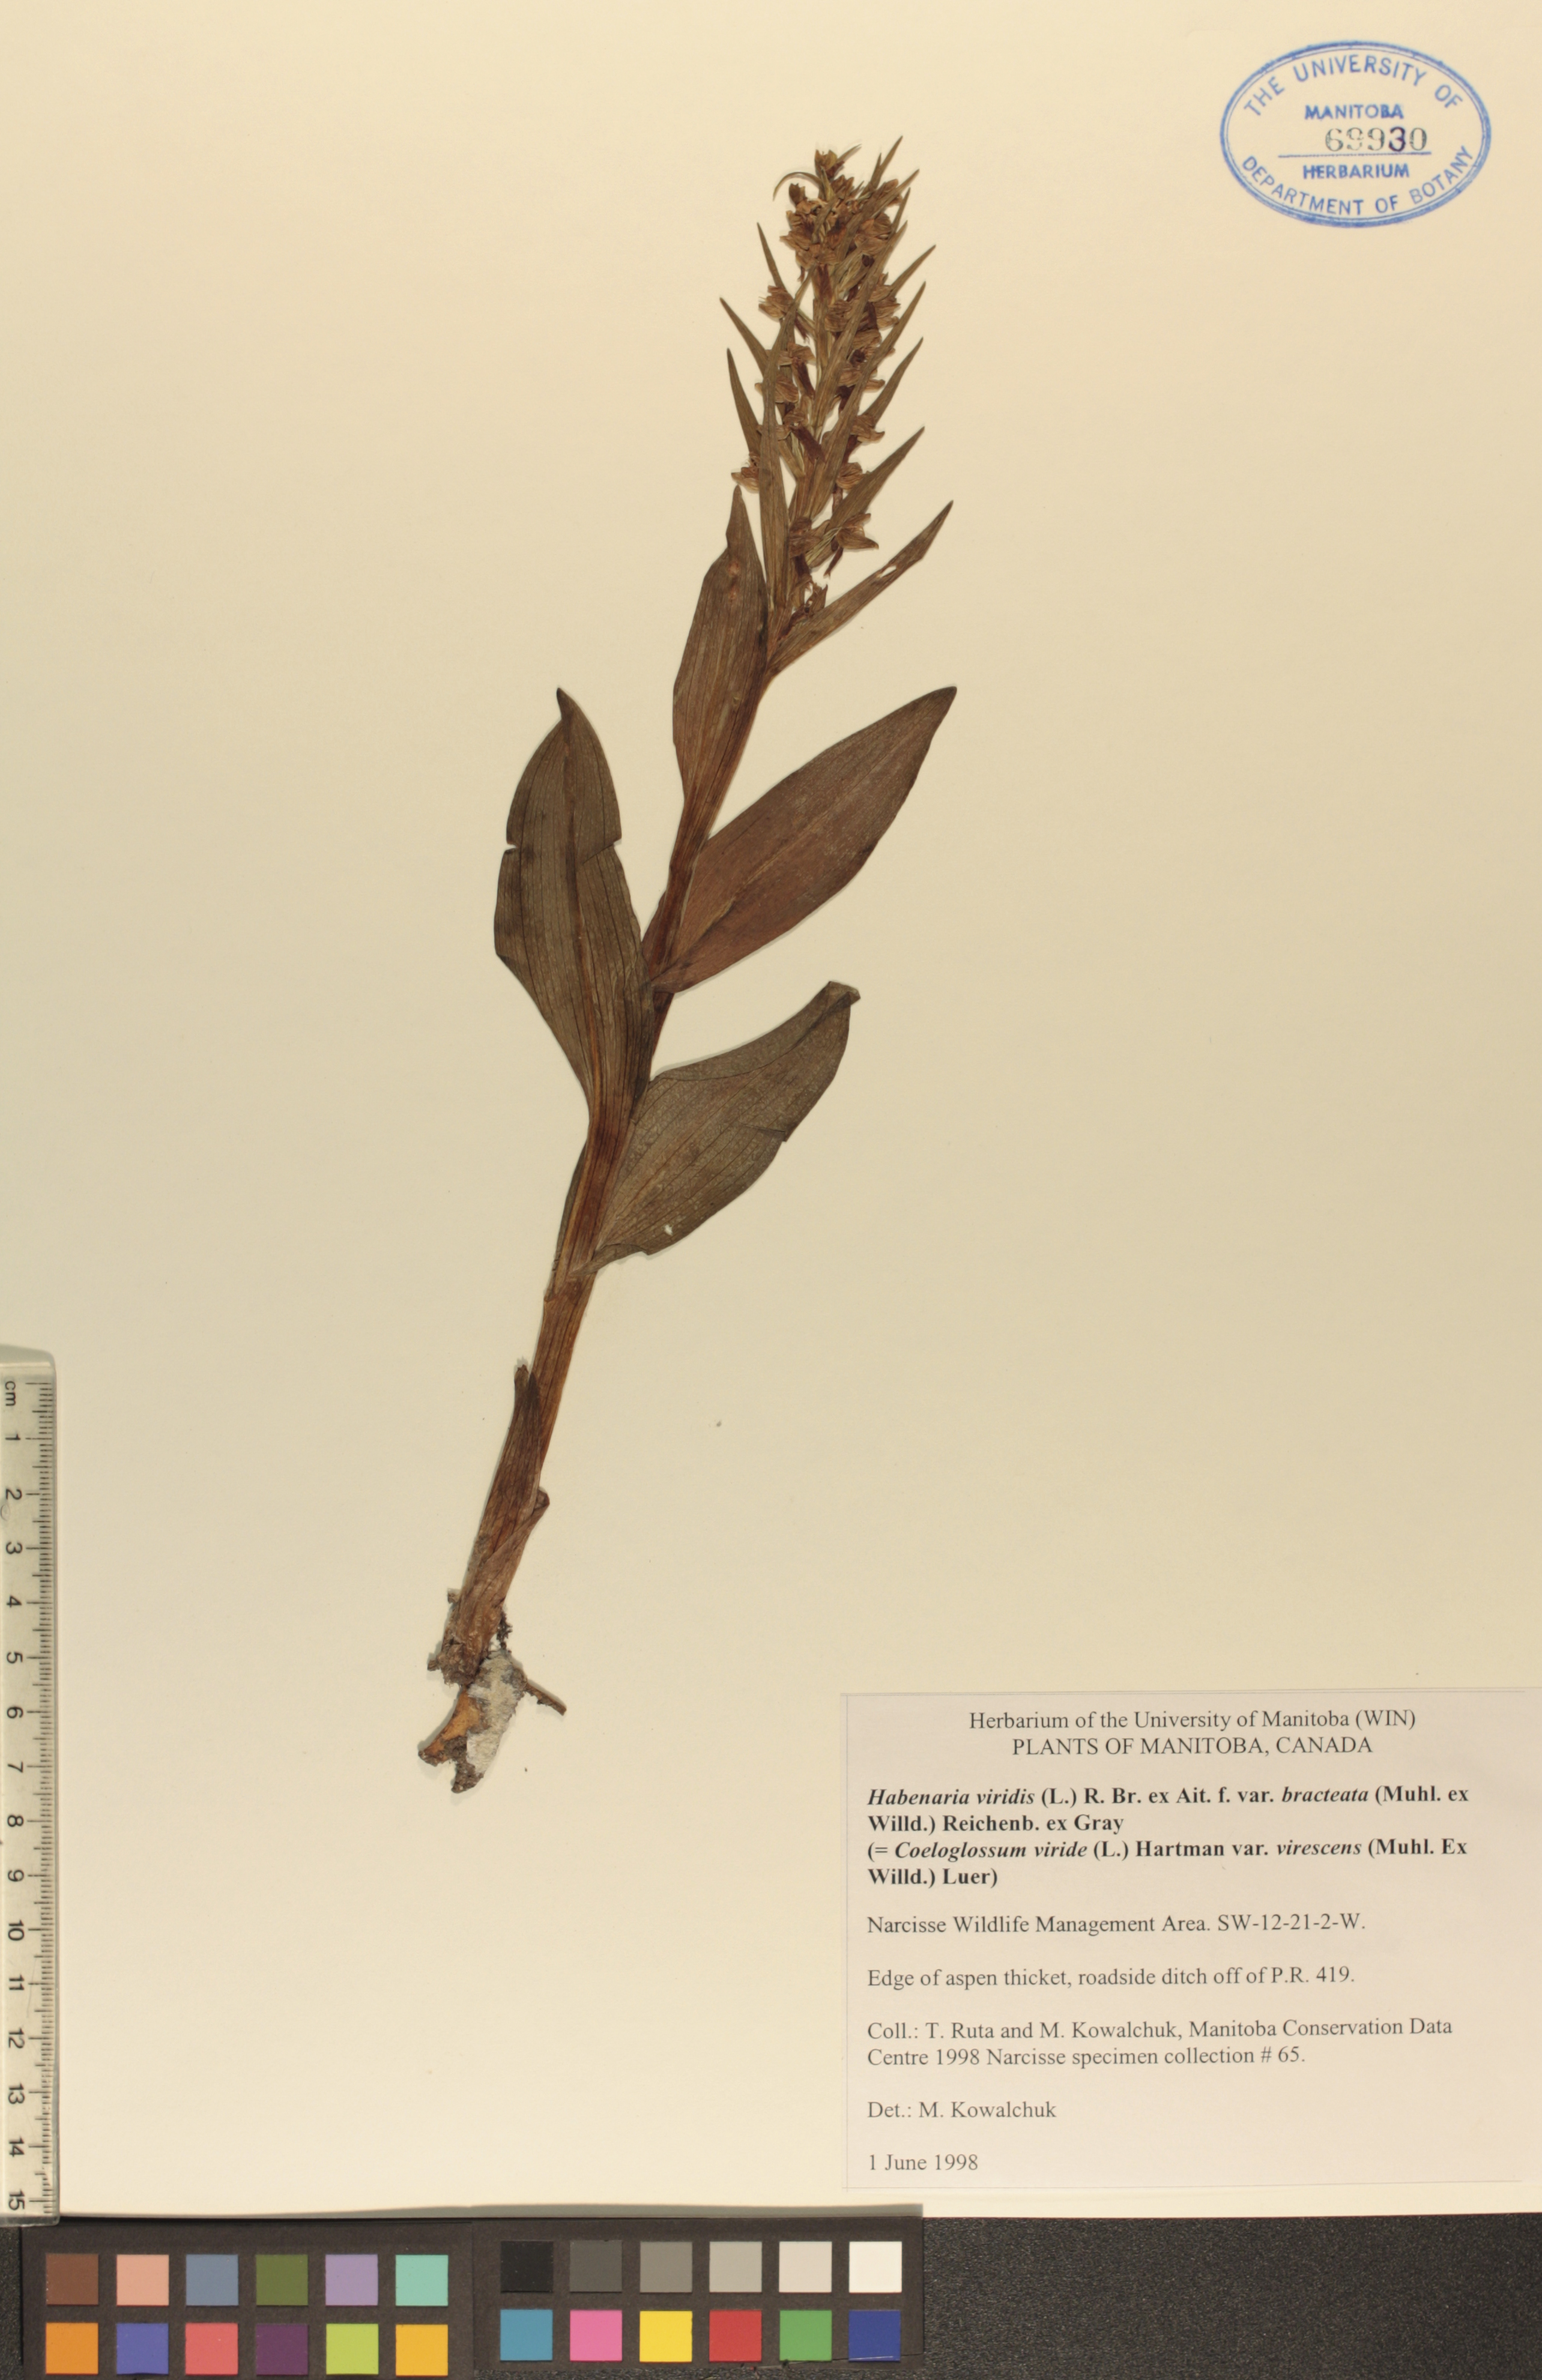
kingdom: Plantae
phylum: Tracheophyta
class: Liliopsida
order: Asparagales
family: Orchidaceae
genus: Dactylorhiza
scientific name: Dactylorhiza viridis
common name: Longbract frog orchid
